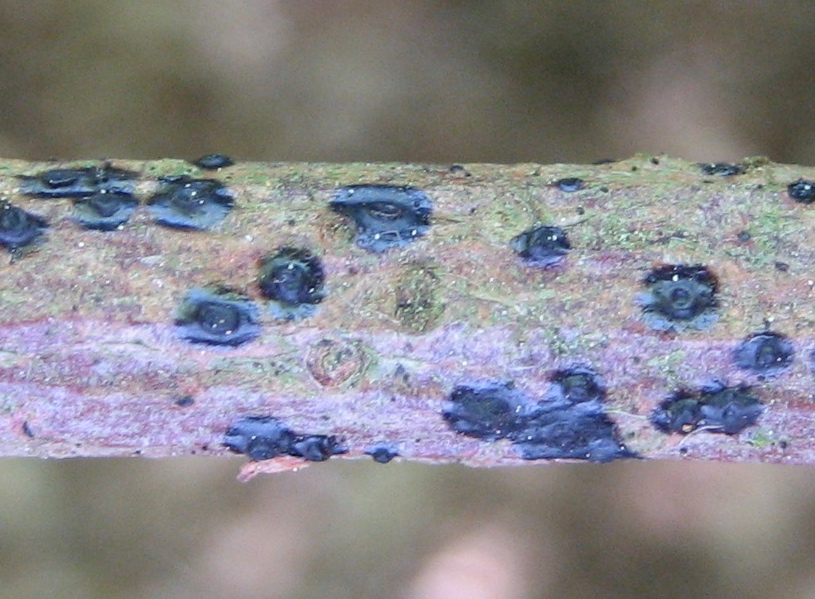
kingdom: Fungi
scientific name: Fungi
